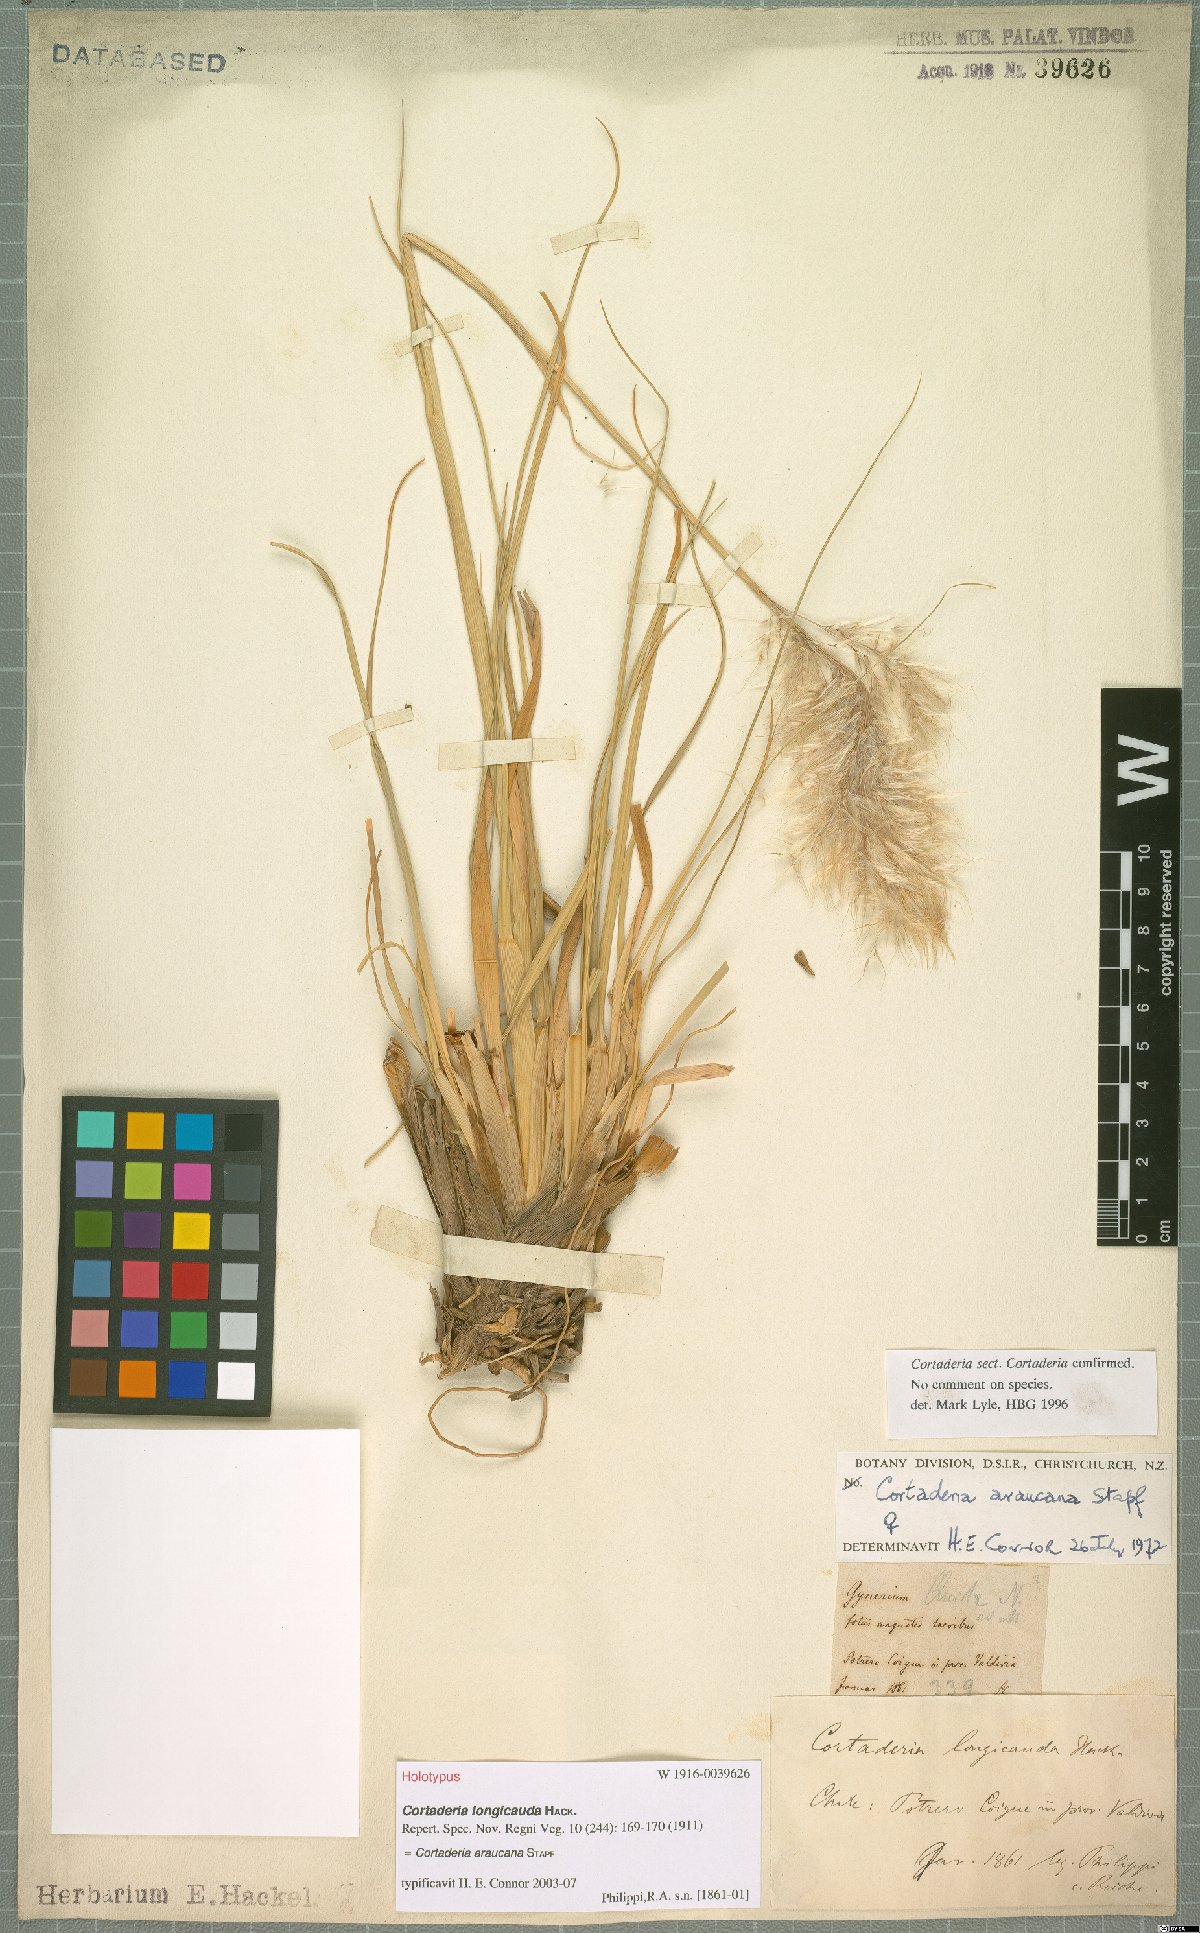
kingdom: Plantae
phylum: Tracheophyta
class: Liliopsida
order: Poales
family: Poaceae
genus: Cortaderia
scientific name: Cortaderia araucana
